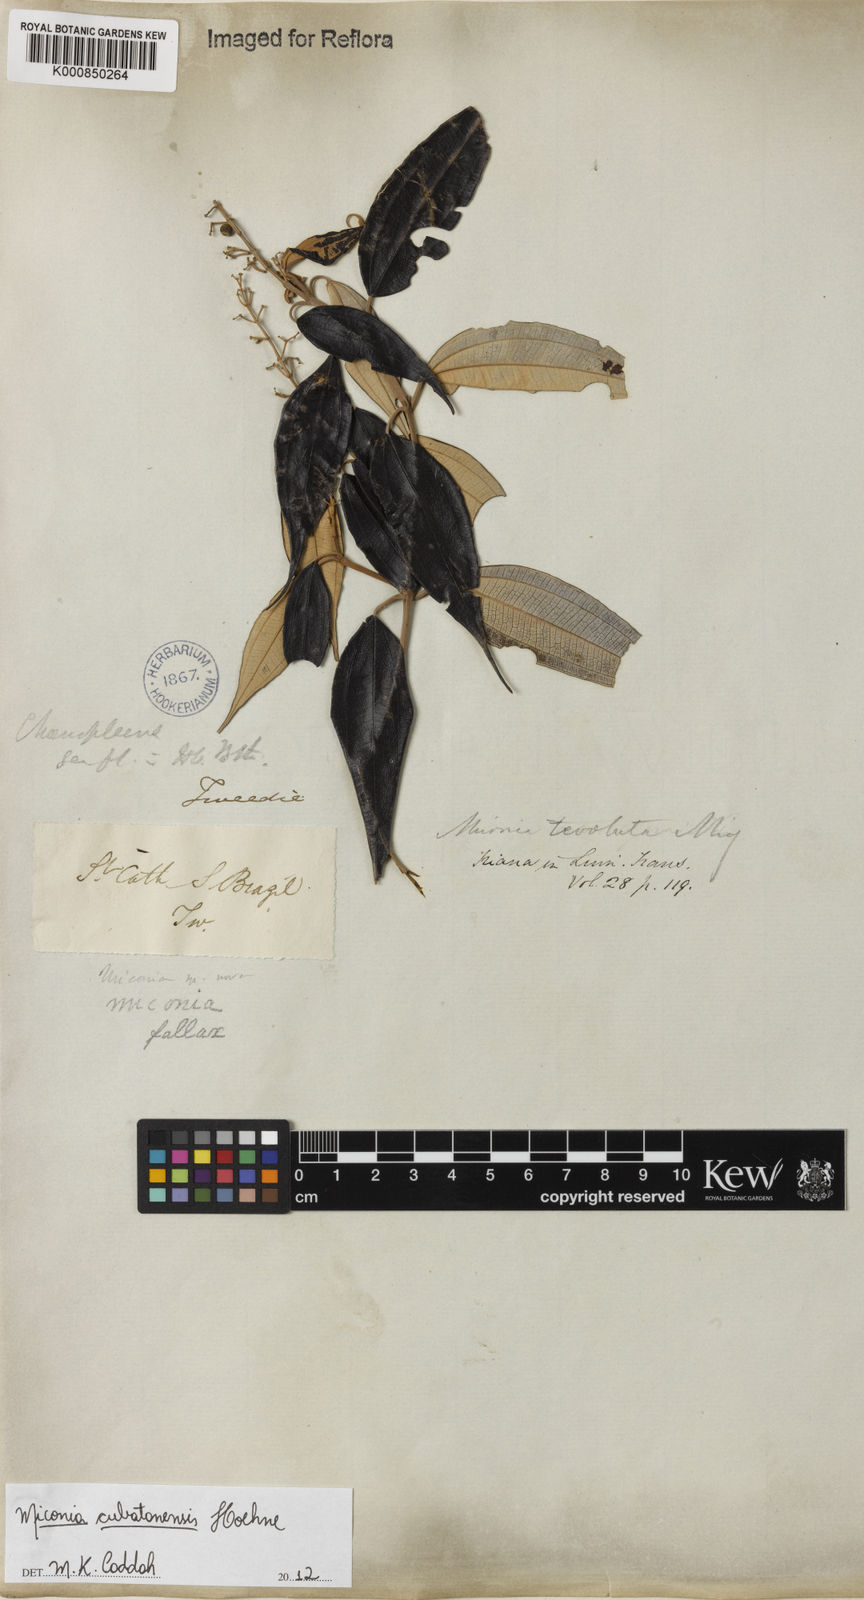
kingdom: Plantae
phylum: Tracheophyta
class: Magnoliopsida
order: Myrtales
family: Melastomataceae
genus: Miconia
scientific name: Miconia cubatanensis
